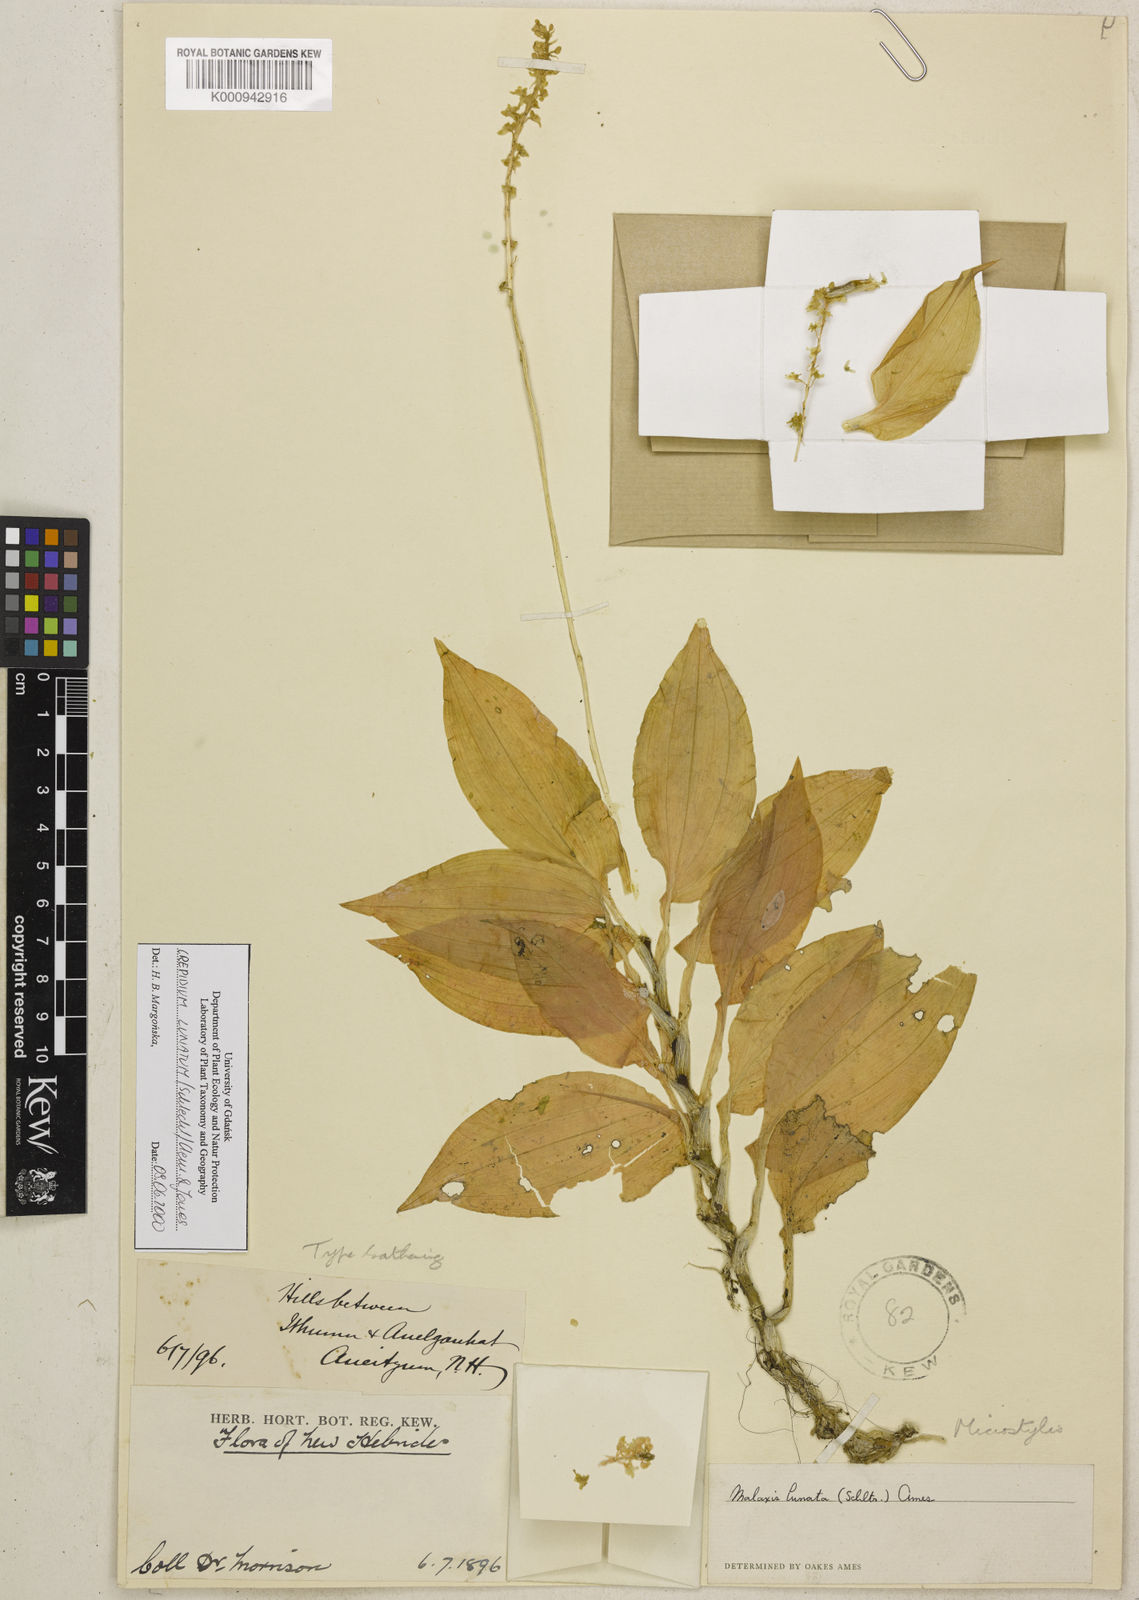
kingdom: Plantae
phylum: Tracheophyta
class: Liliopsida
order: Asparagales
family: Orchidaceae
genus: Crepidium
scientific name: Crepidium lunatum
